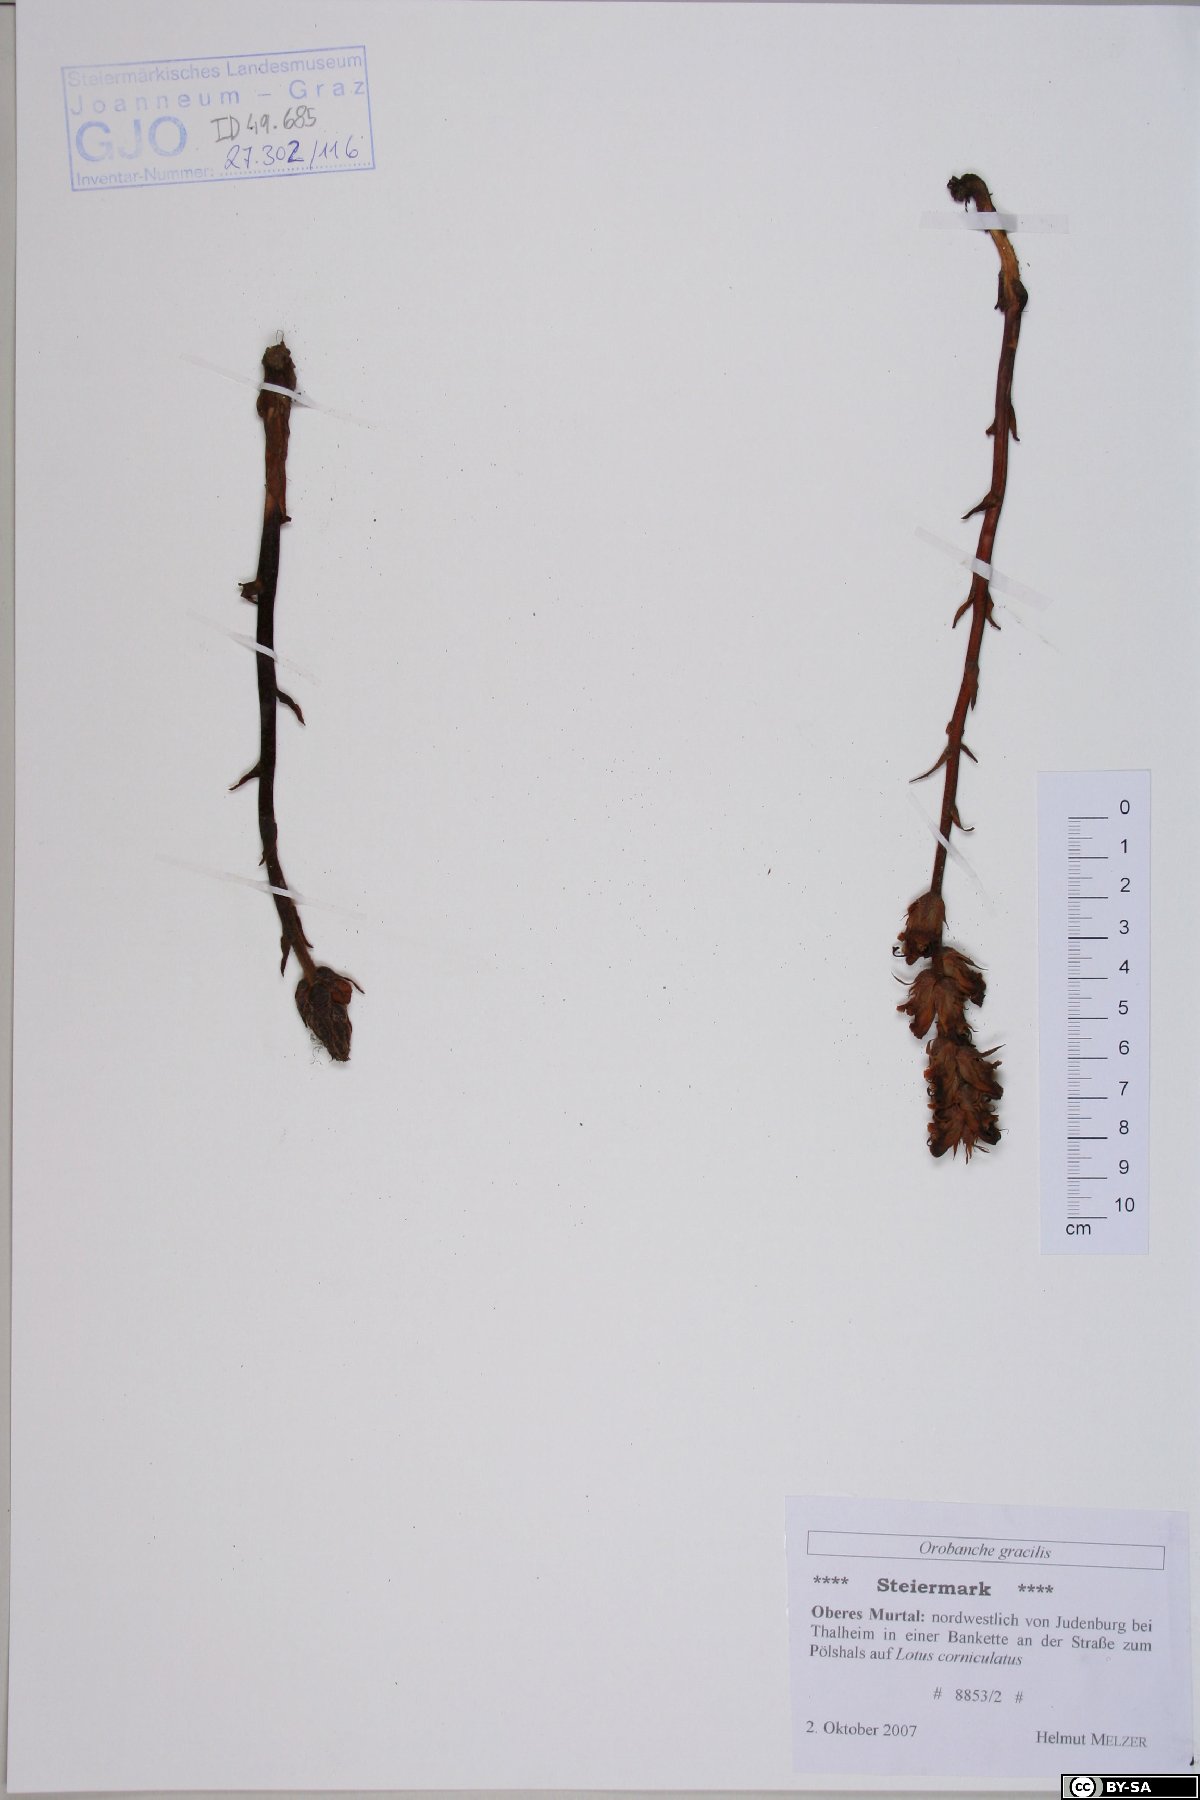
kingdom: Plantae
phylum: Tracheophyta
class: Magnoliopsida
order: Lamiales
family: Orobanchaceae
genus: Orobanche
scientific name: Orobanche gracilis
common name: Slender broomrape
